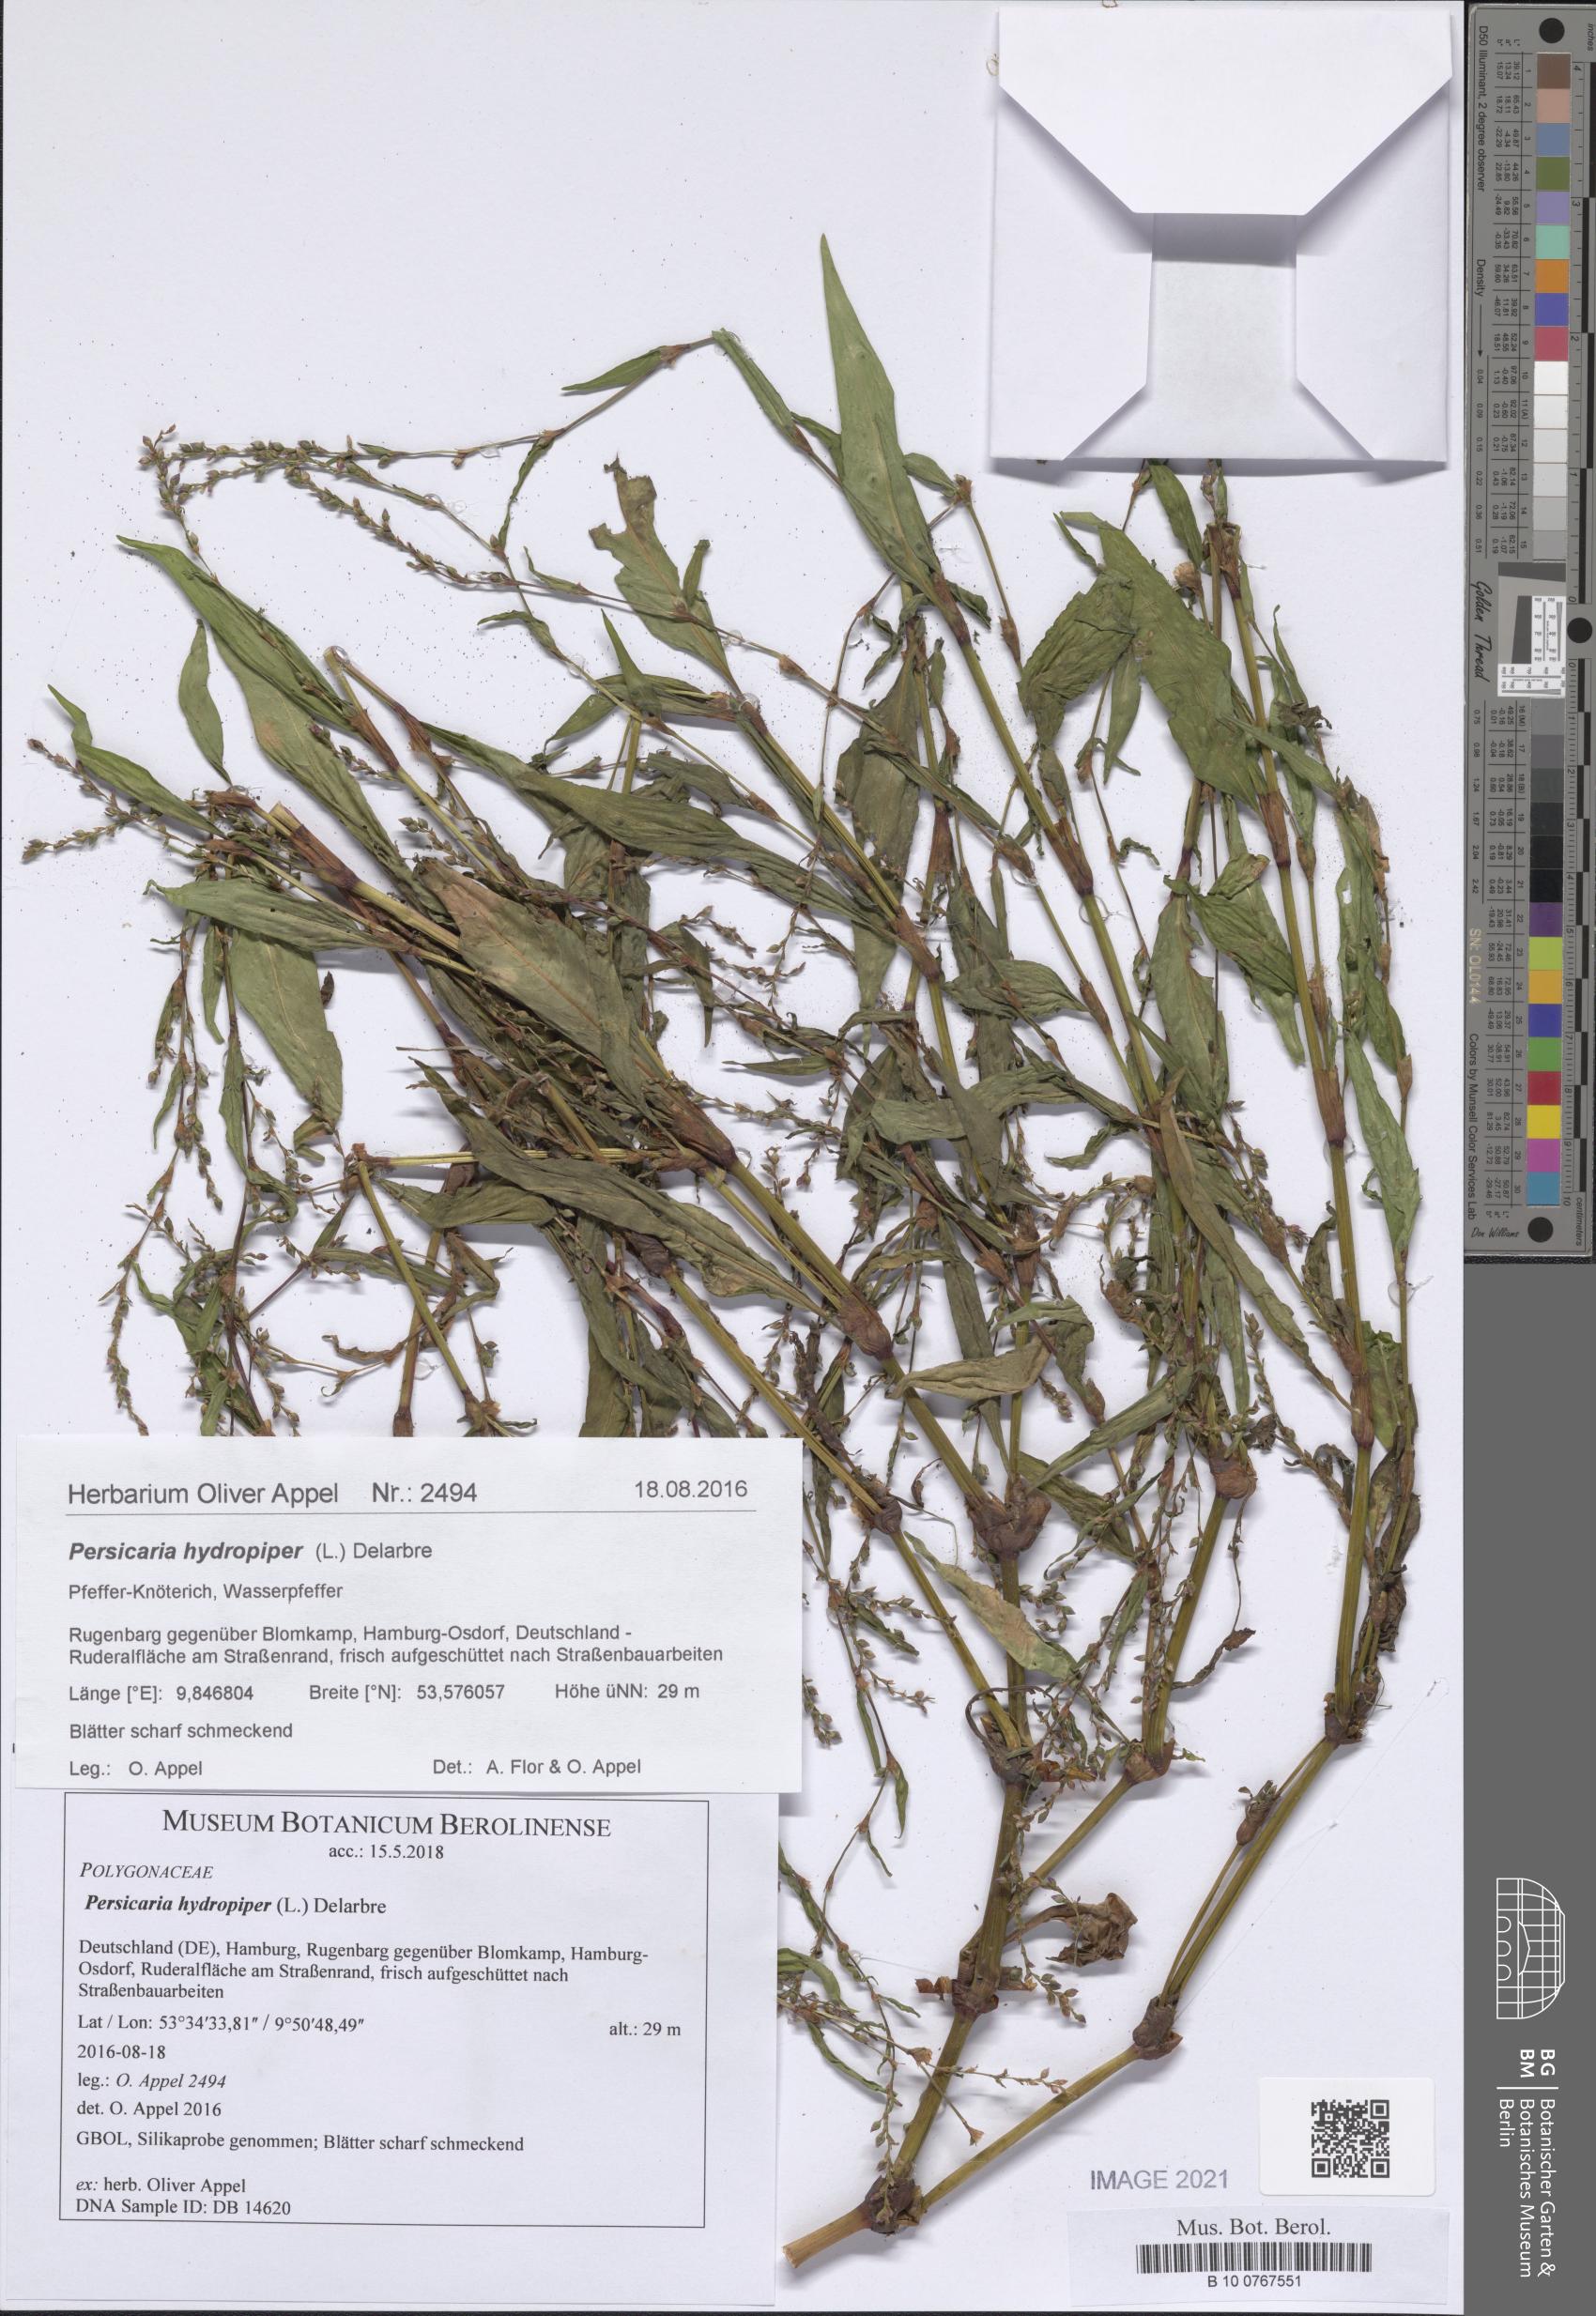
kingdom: Plantae
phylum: Tracheophyta
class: Magnoliopsida
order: Caryophyllales
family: Polygonaceae
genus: Persicaria
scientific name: Persicaria hydropiper
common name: Water-pepper
